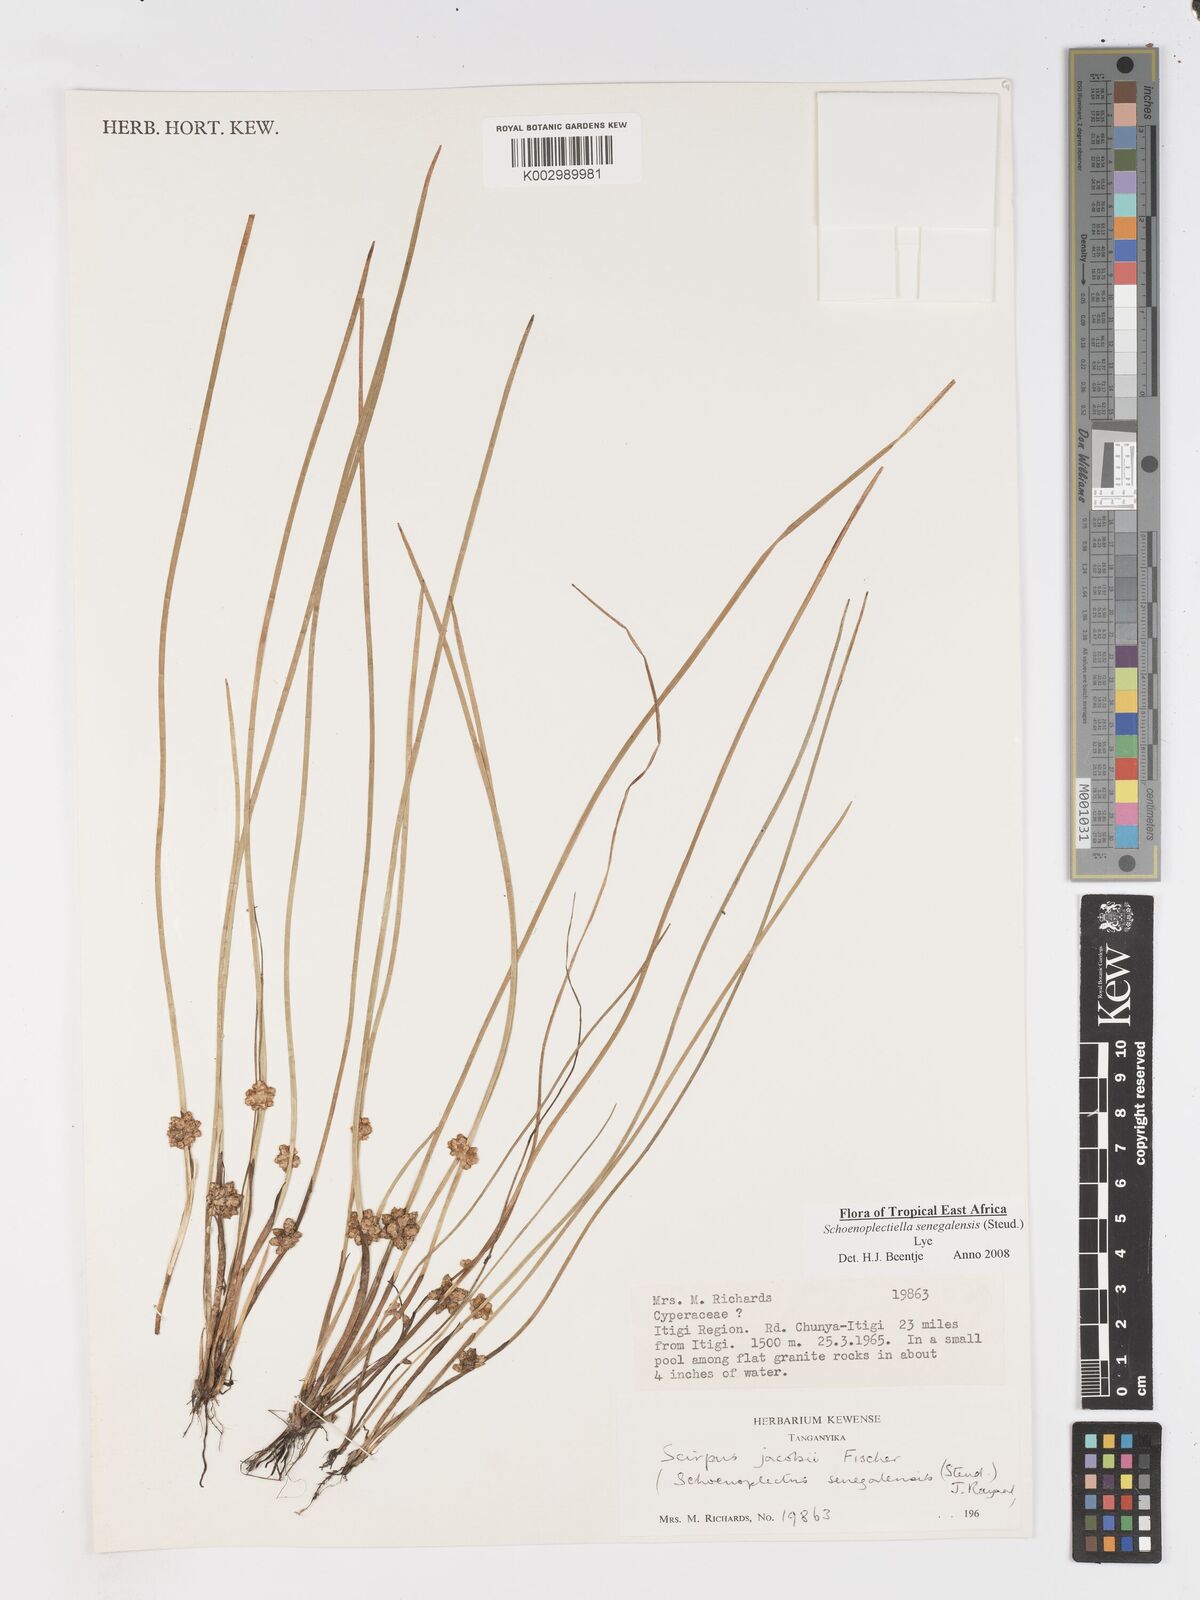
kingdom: Plantae
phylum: Tracheophyta
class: Liliopsida
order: Poales
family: Cyperaceae
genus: Schoenoplectiella
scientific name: Schoenoplectiella senegalensis
